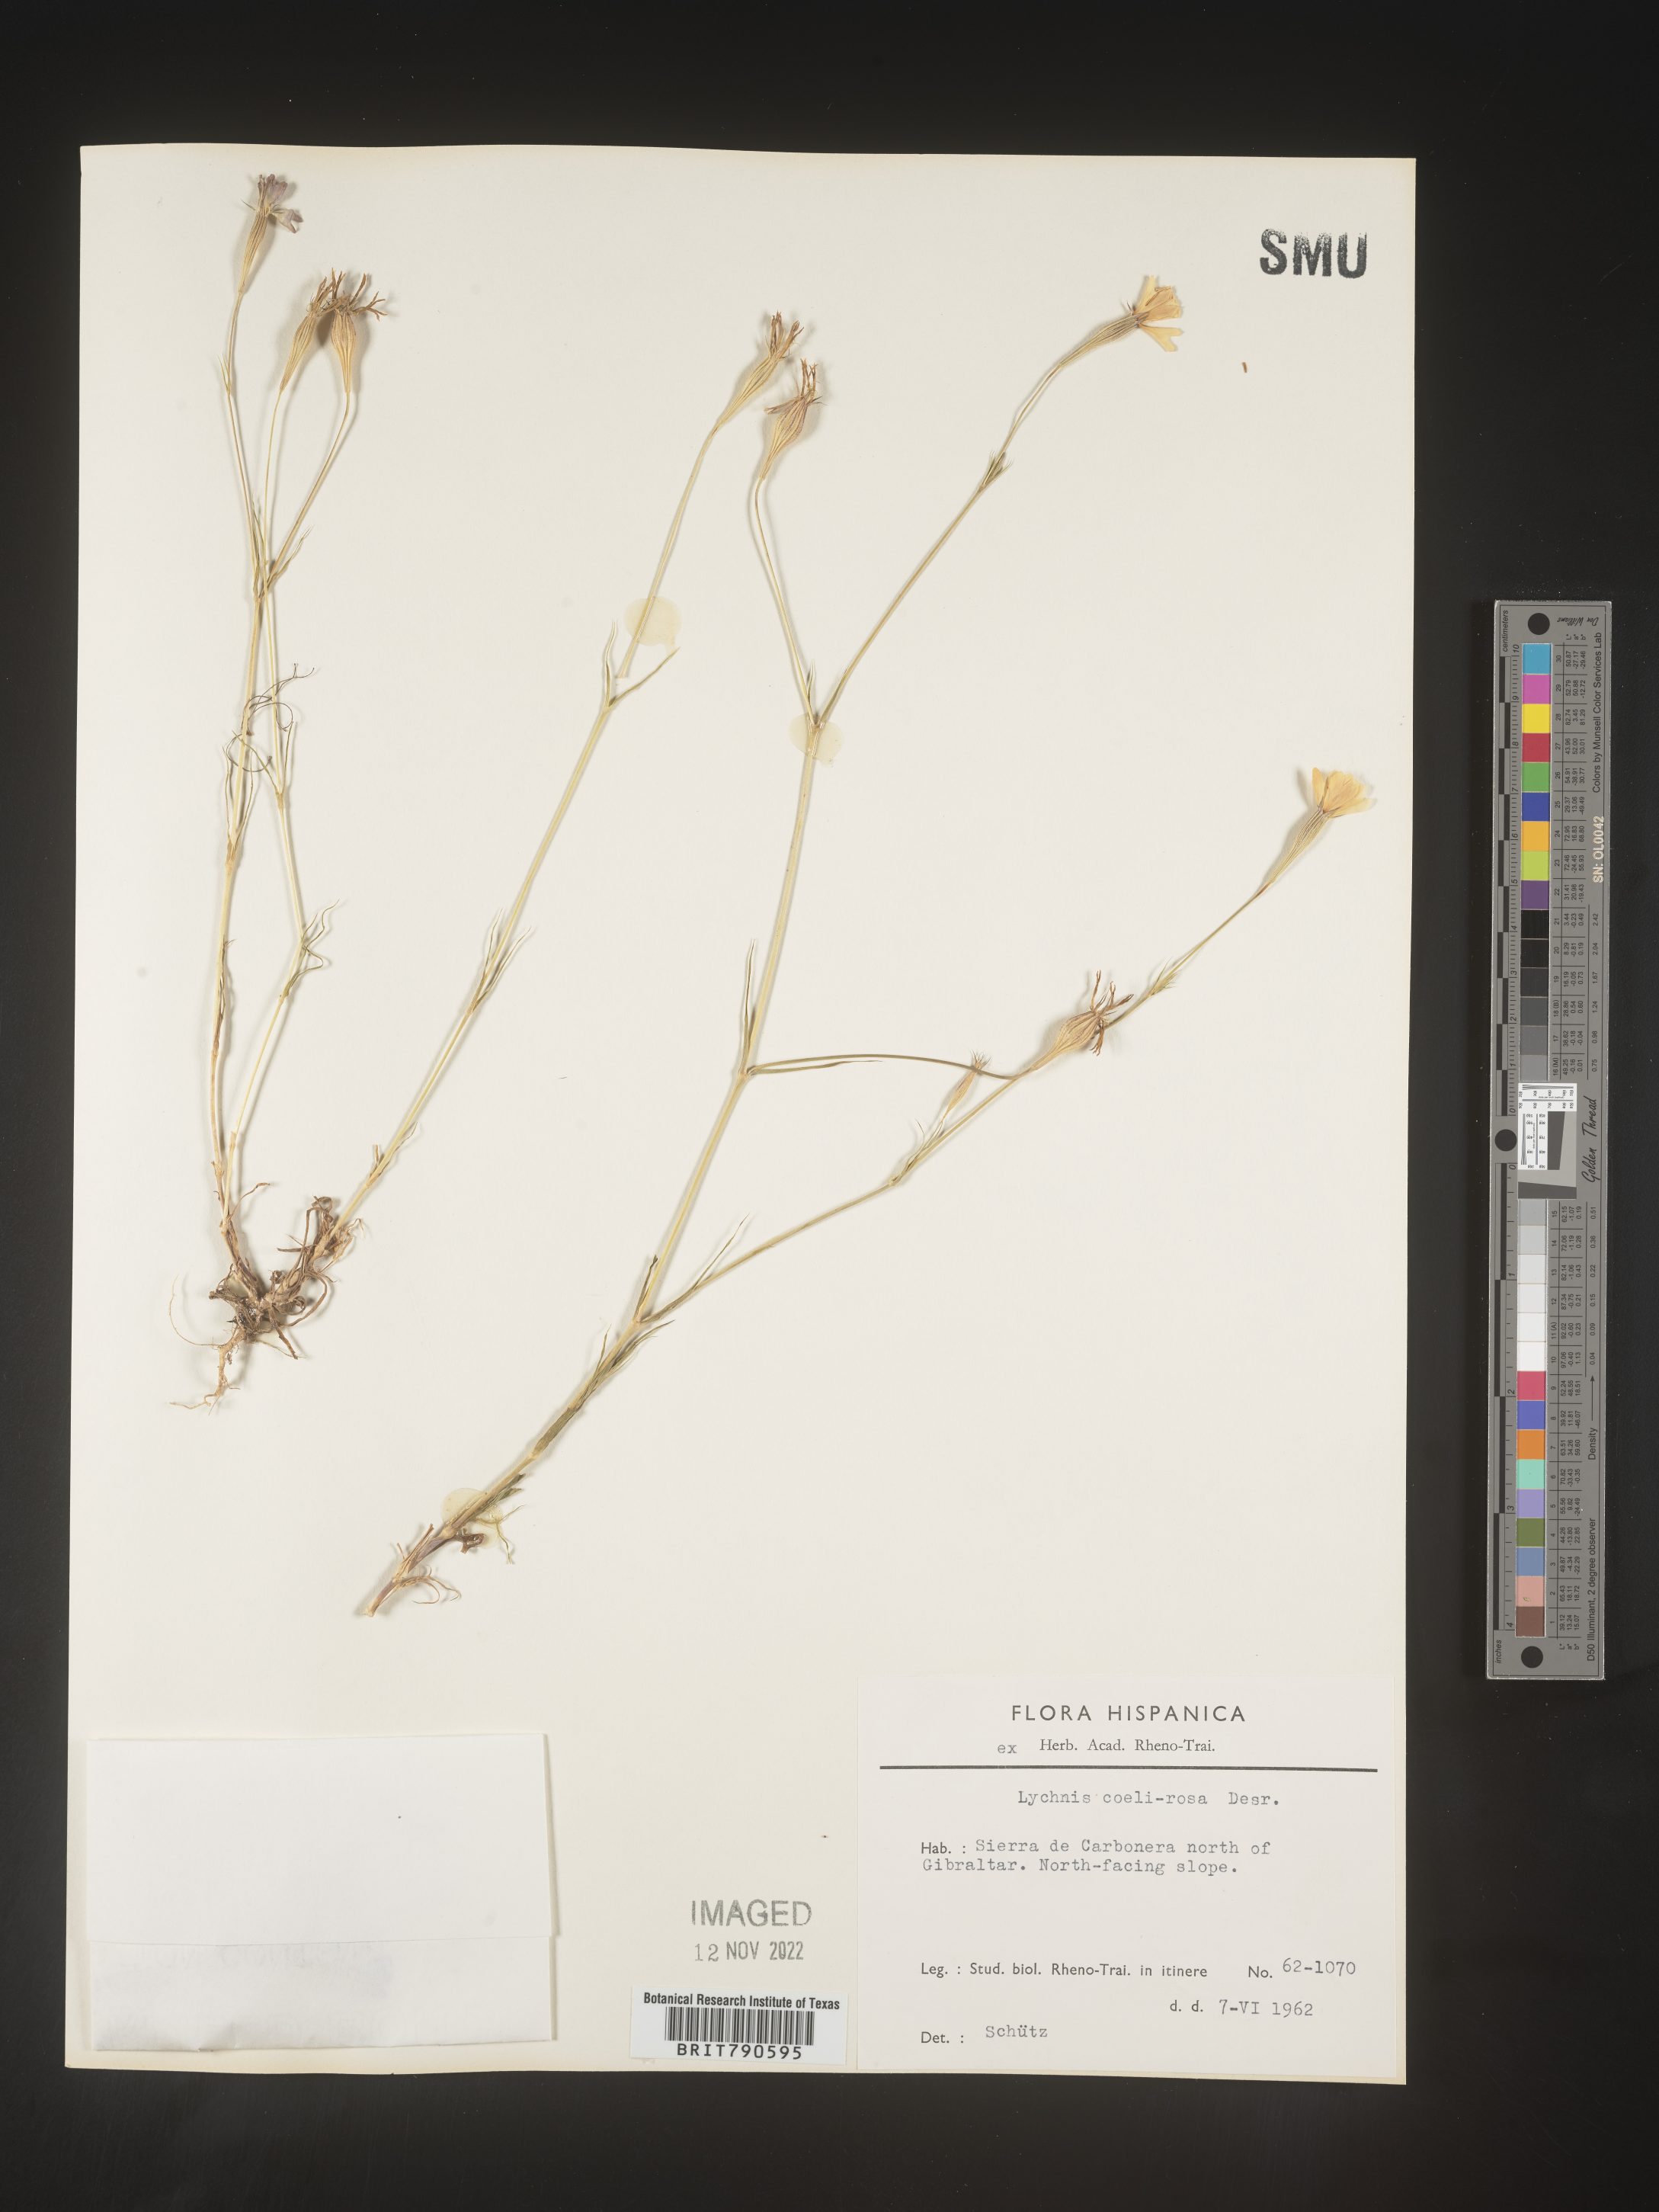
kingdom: Plantae
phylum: Tracheophyta
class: Magnoliopsida
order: Caryophyllales
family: Caryophyllaceae
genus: Silene
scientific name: Silene
